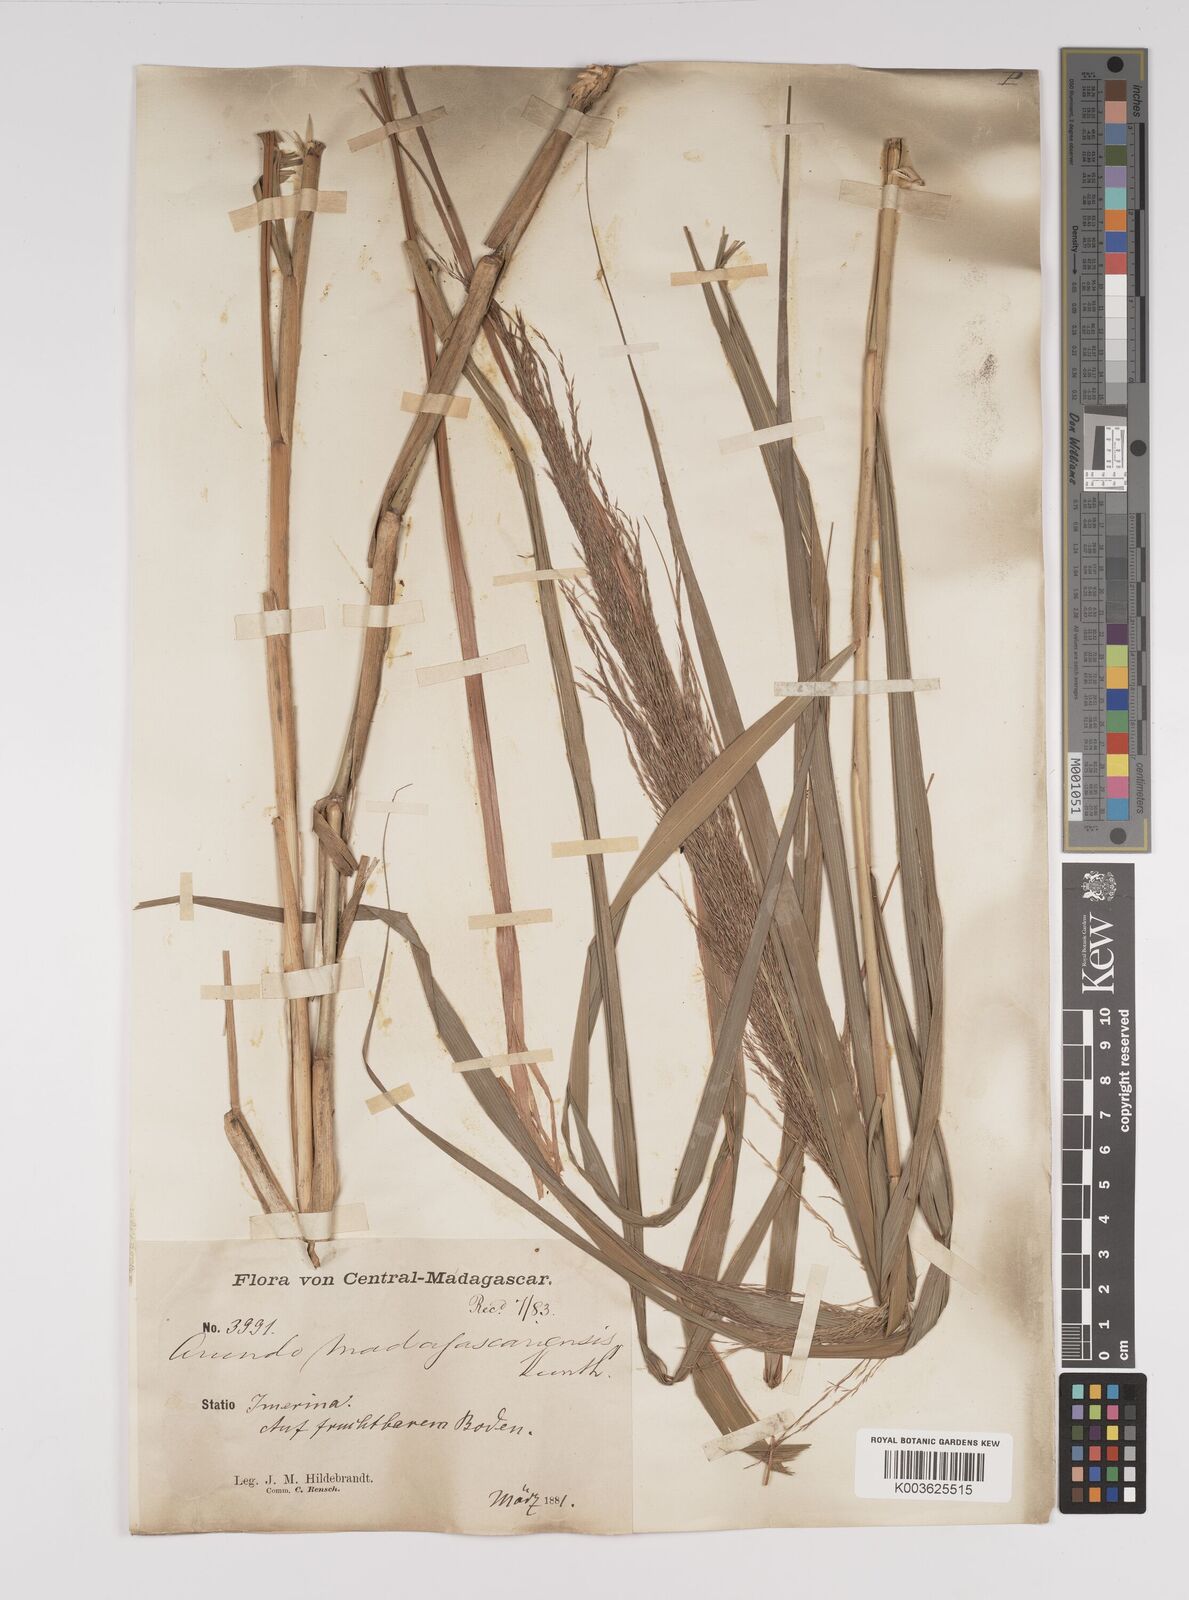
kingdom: Plantae
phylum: Tracheophyta
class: Liliopsida
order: Poales
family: Poaceae
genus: Neyraudia
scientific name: Neyraudia arundinacea
